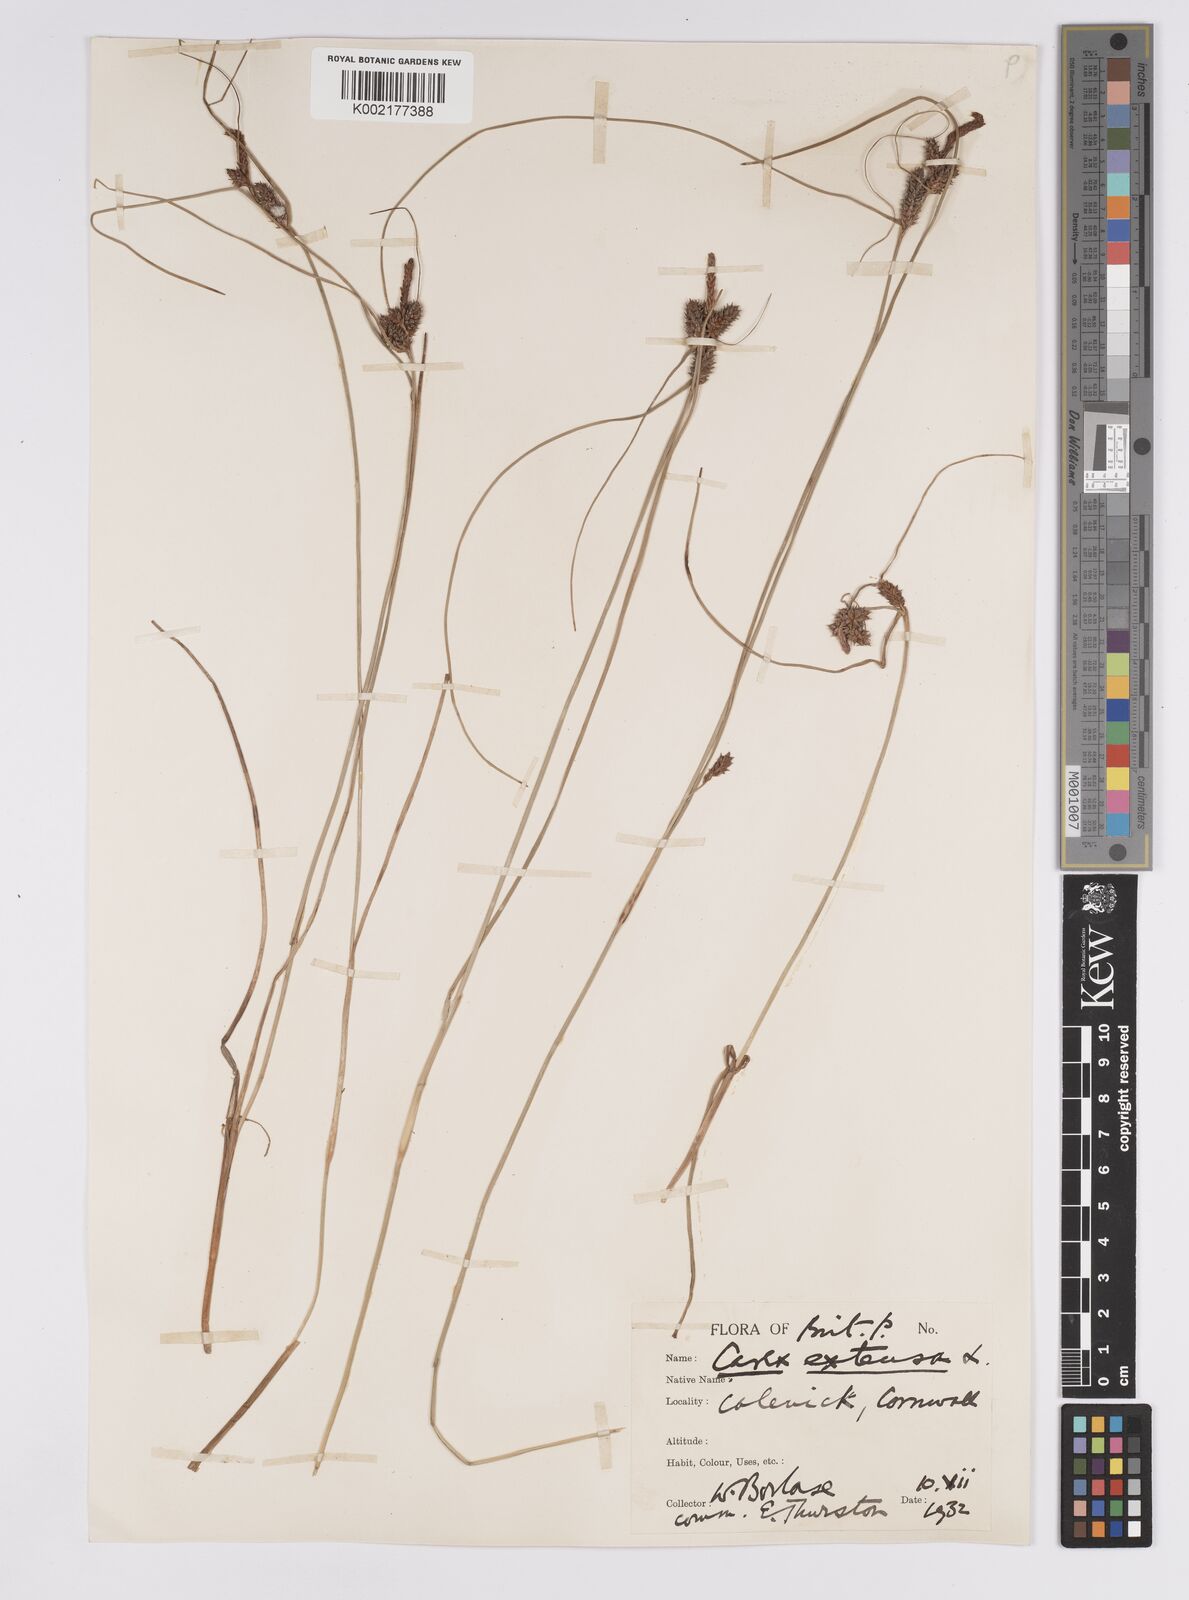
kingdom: Plantae
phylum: Tracheophyta
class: Liliopsida
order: Poales
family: Cyperaceae
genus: Carex
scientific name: Carex extensa
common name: Long-bracted sedge
